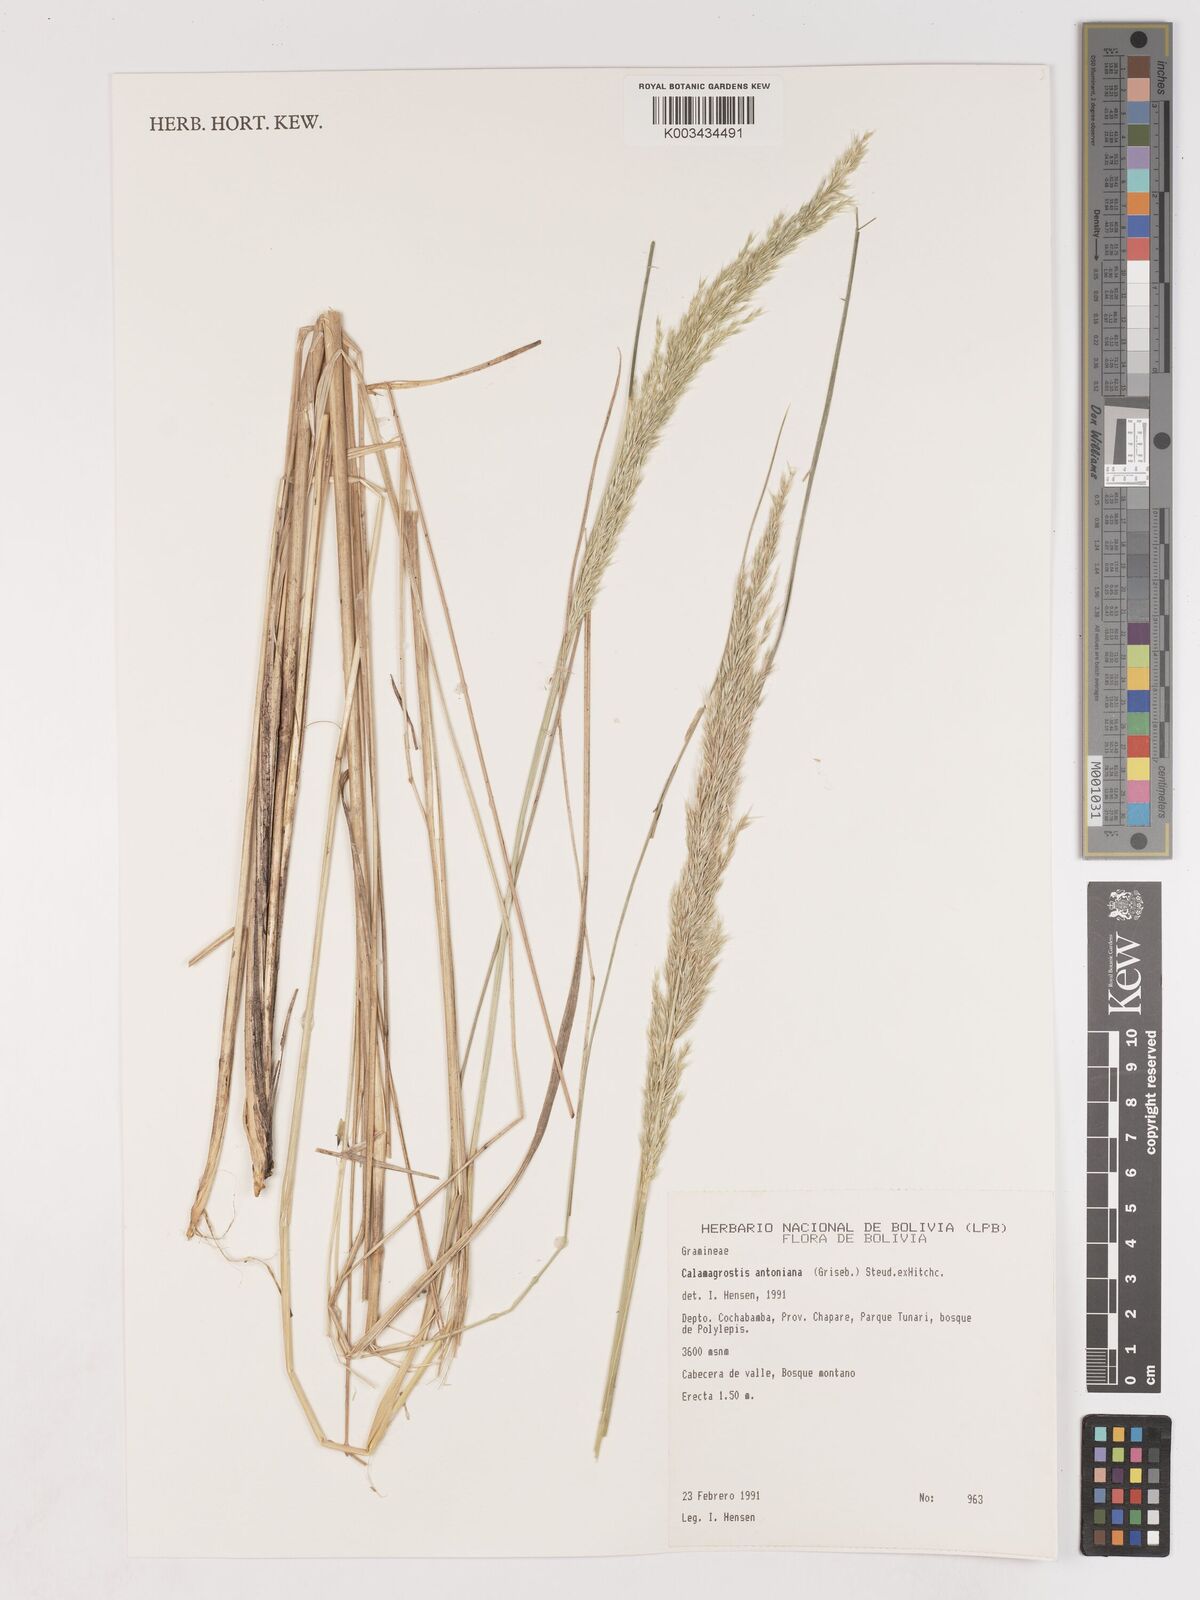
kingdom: Plantae
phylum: Tracheophyta
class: Liliopsida
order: Poales
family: Poaceae
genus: Cinnagrostis
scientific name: Cinnagrostis rigida
